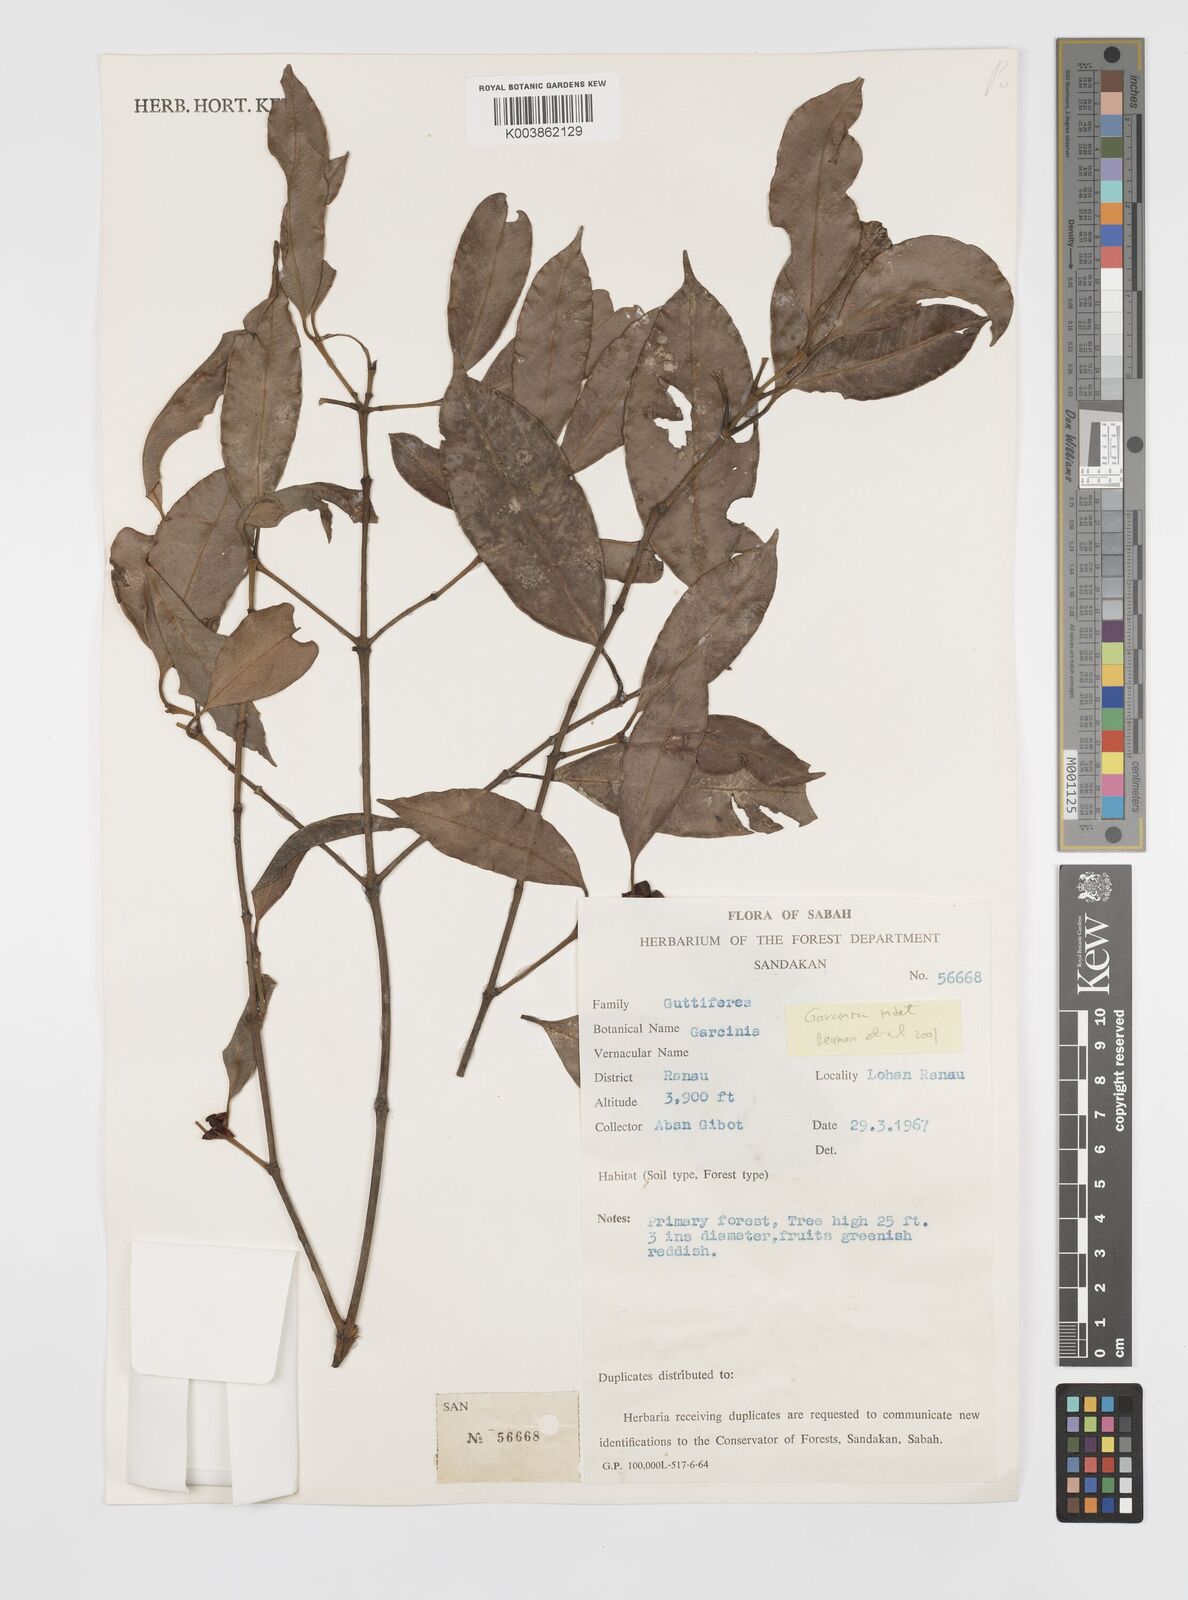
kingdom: Plantae
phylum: Tracheophyta
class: Magnoliopsida
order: Malpighiales
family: Clusiaceae
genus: Garcinia
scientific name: Garcinia
